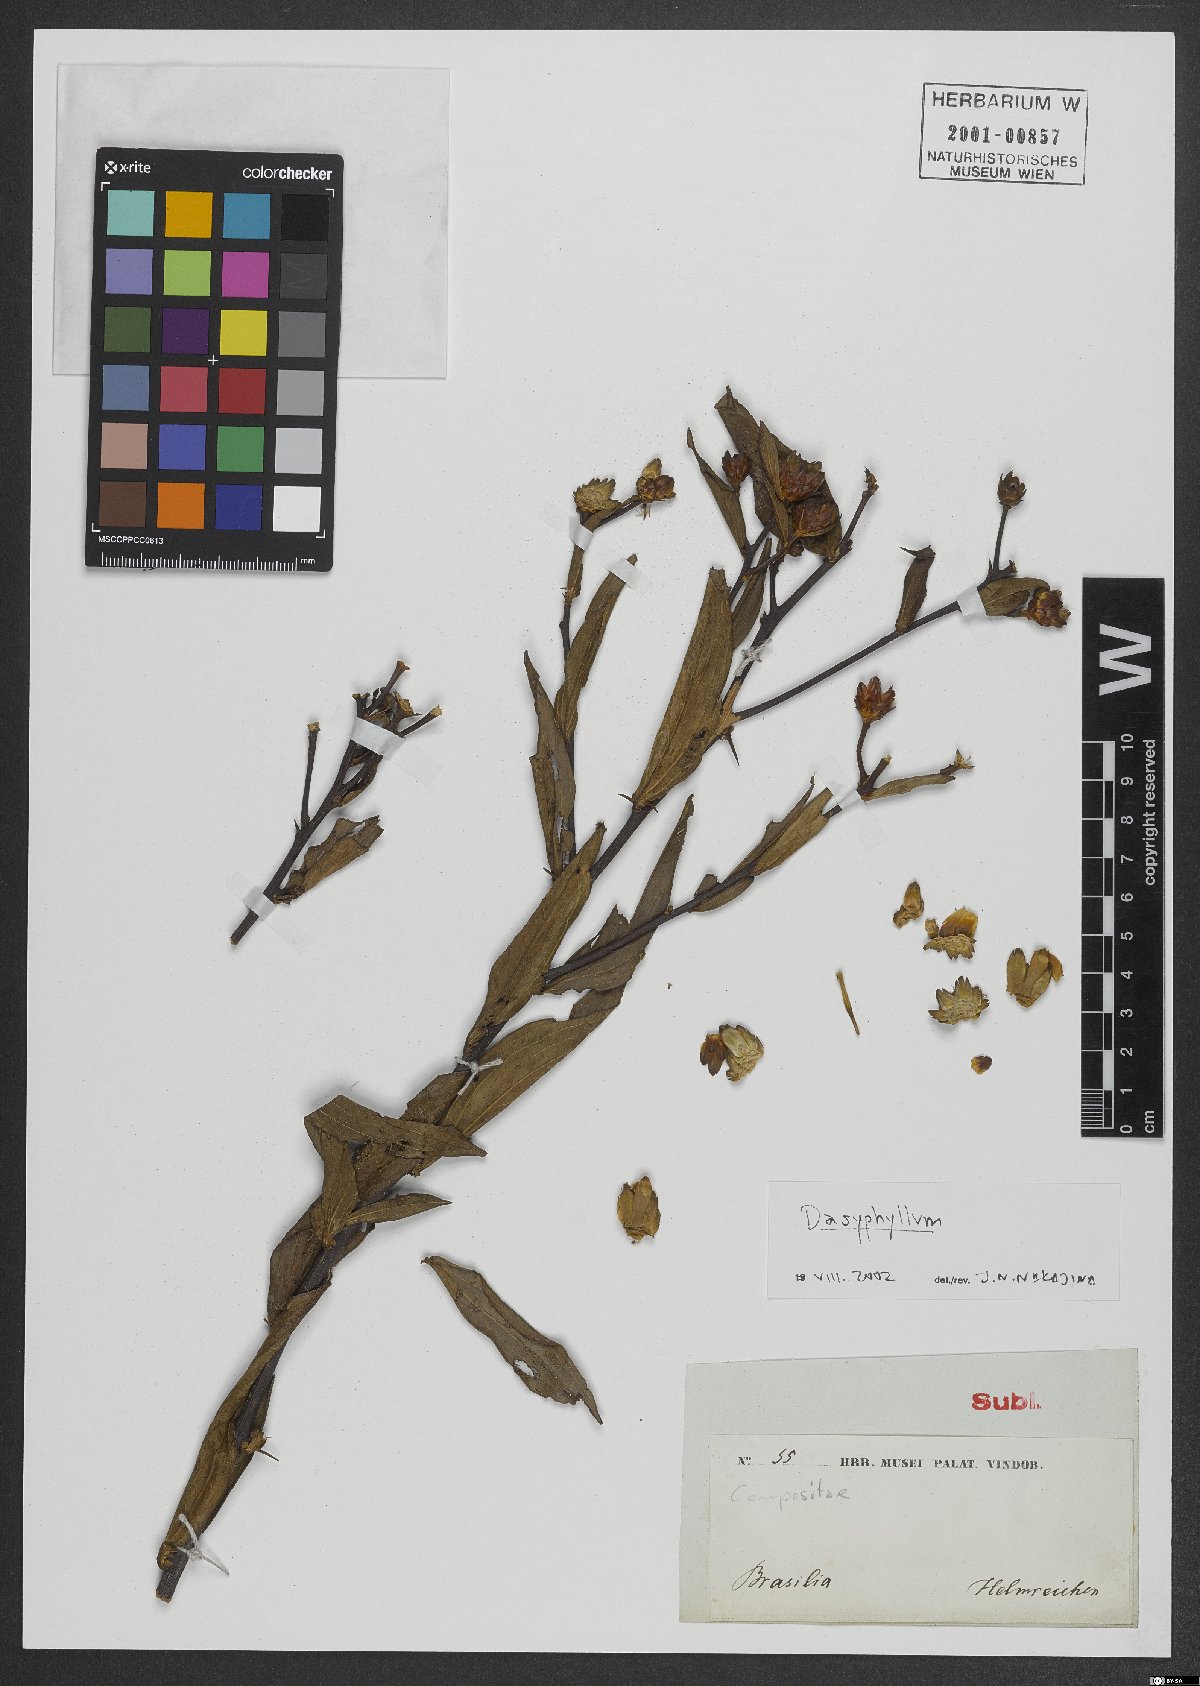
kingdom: Plantae
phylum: Tracheophyta
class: Magnoliopsida
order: Asterales
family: Asteraceae
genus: Dasyphyllum
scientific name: Dasyphyllum
